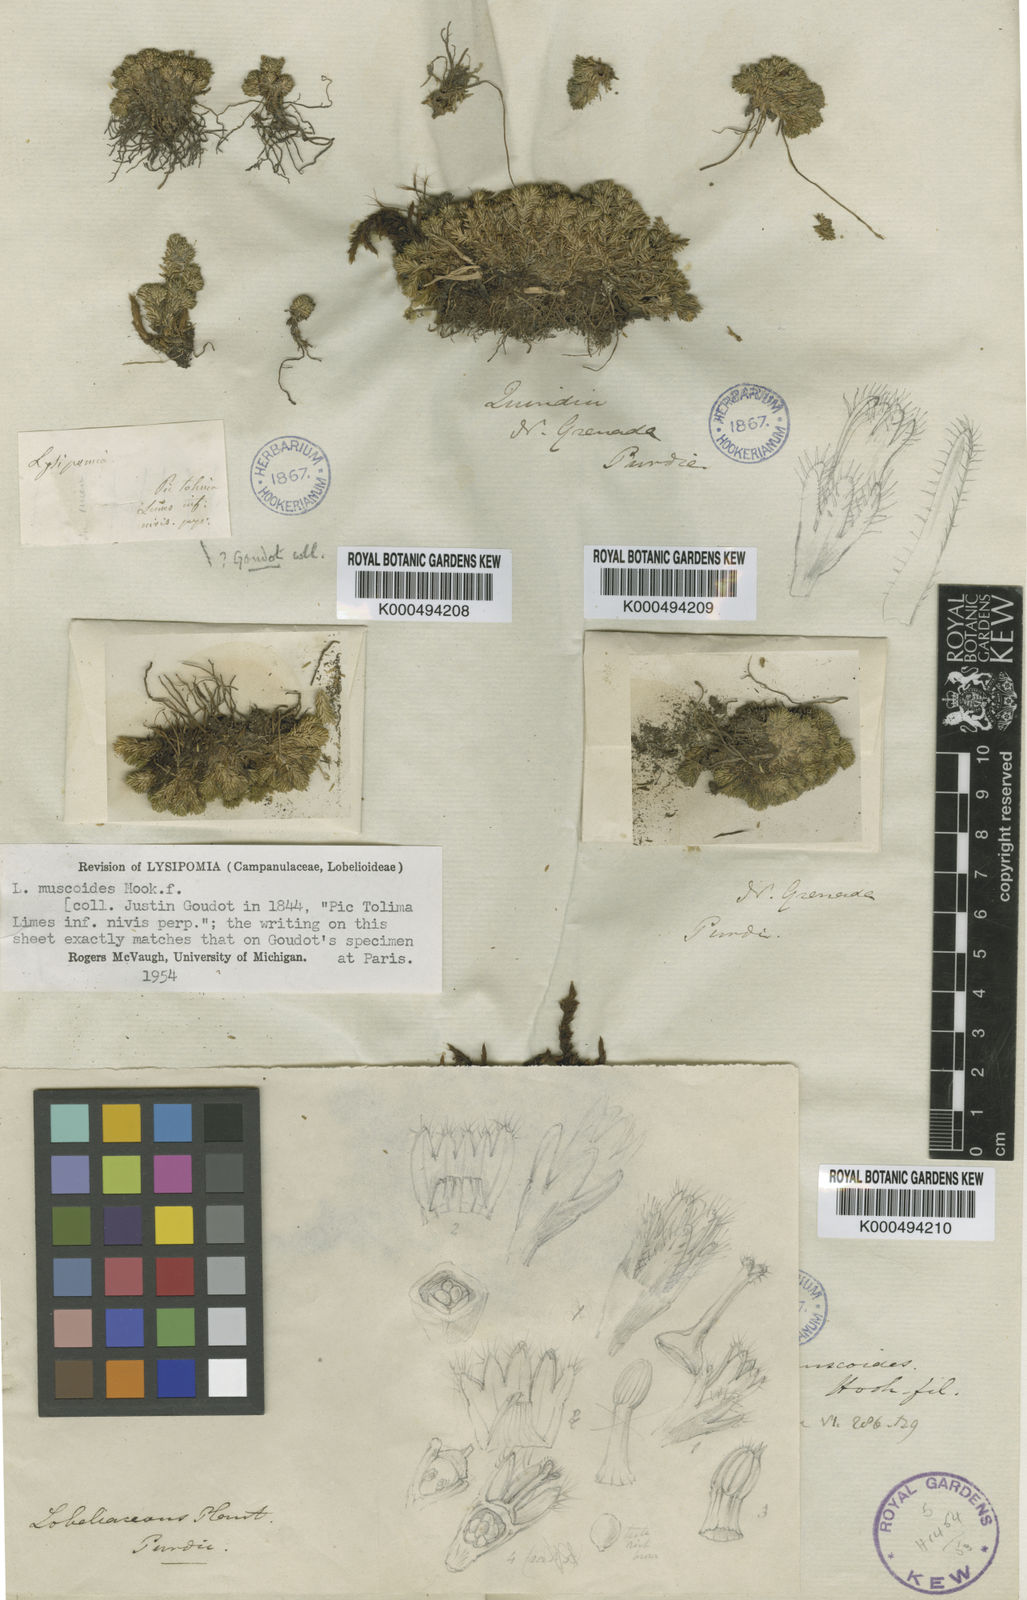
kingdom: Plantae
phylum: Tracheophyta
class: Magnoliopsida
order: Asterales
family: Campanulaceae
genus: Lysipomia
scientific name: Lysipomia muscoides
